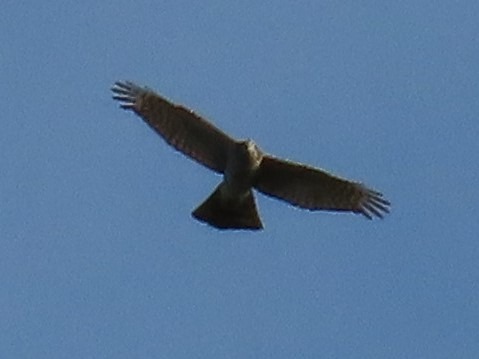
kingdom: Animalia
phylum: Chordata
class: Aves
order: Accipitriformes
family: Accipitridae
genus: Accipiter
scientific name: Accipiter nisus
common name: Spurvehøg
